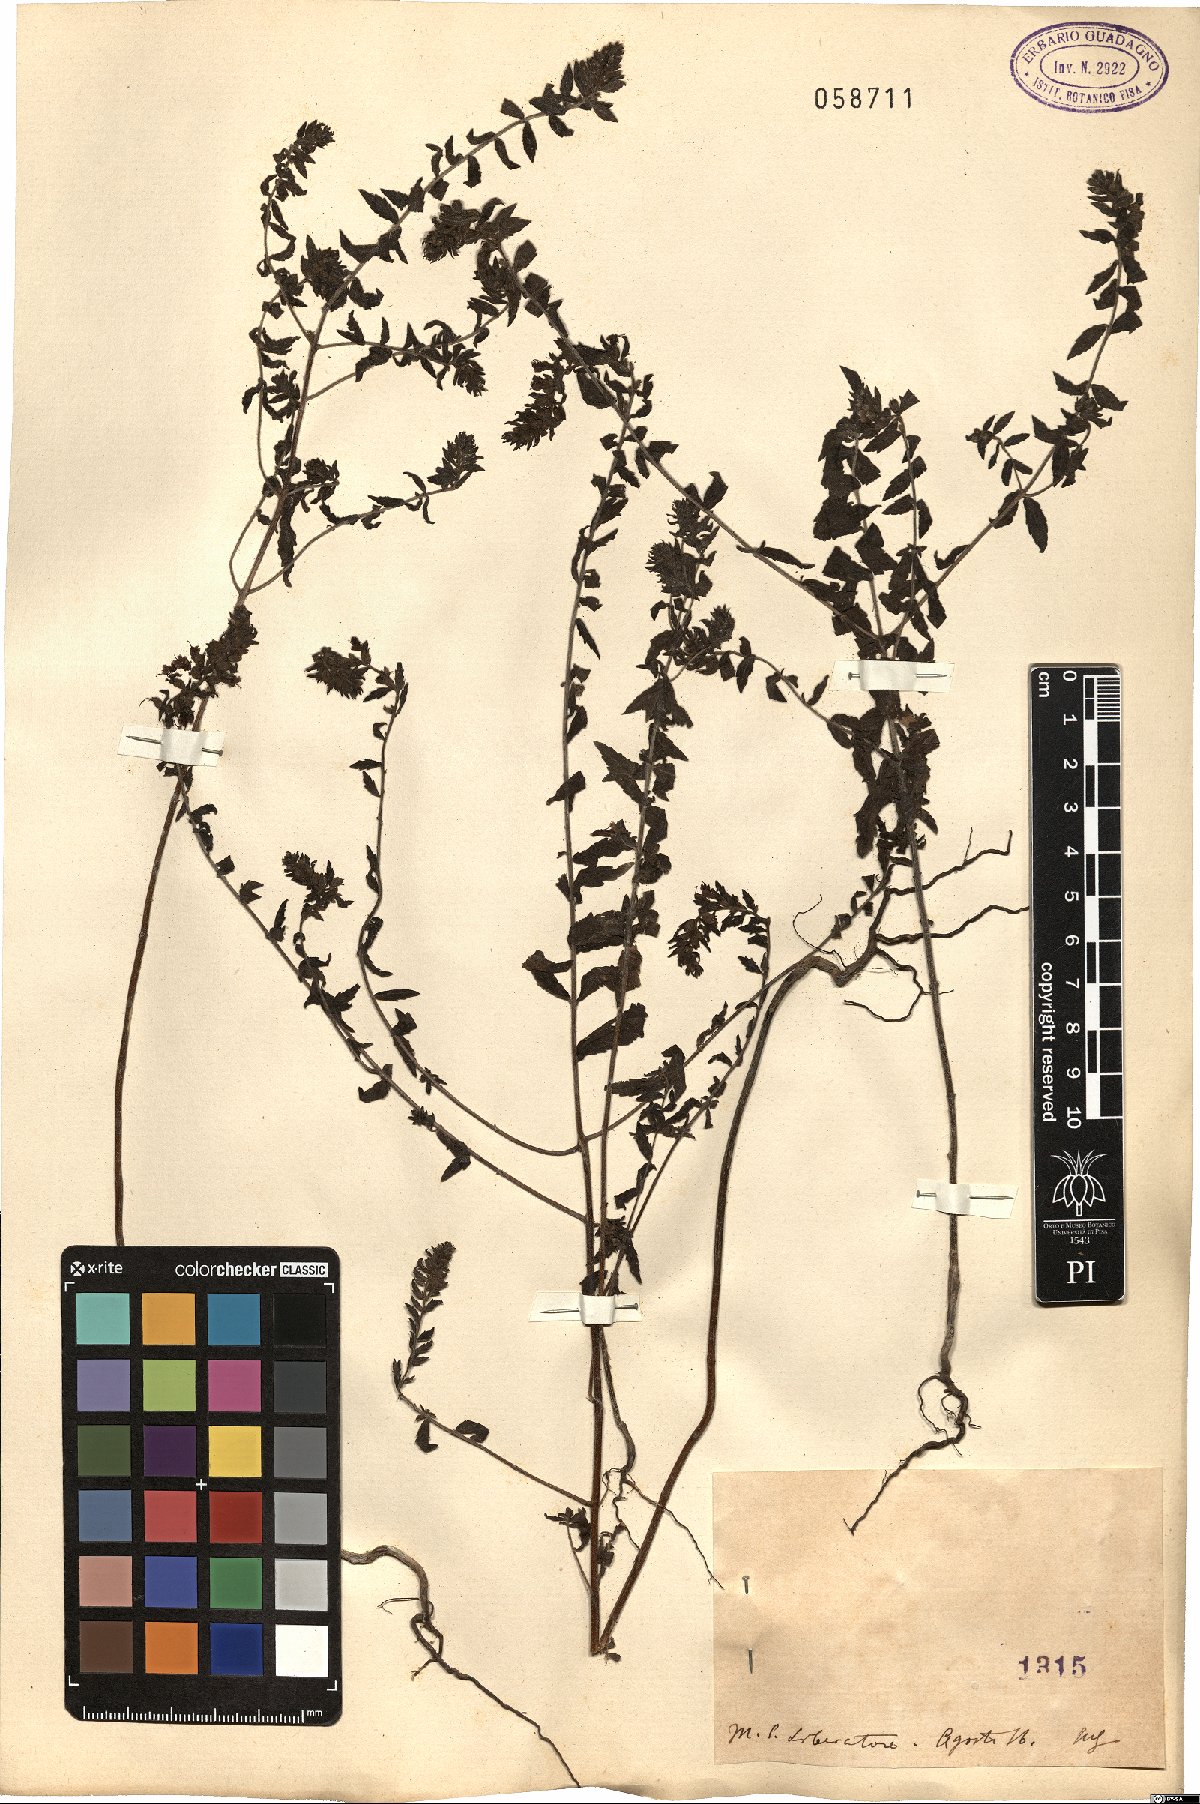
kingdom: Plantae
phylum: Tracheophyta
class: Magnoliopsida
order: Lamiales
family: Orobanchaceae
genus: Bartsia
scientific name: Bartsia
